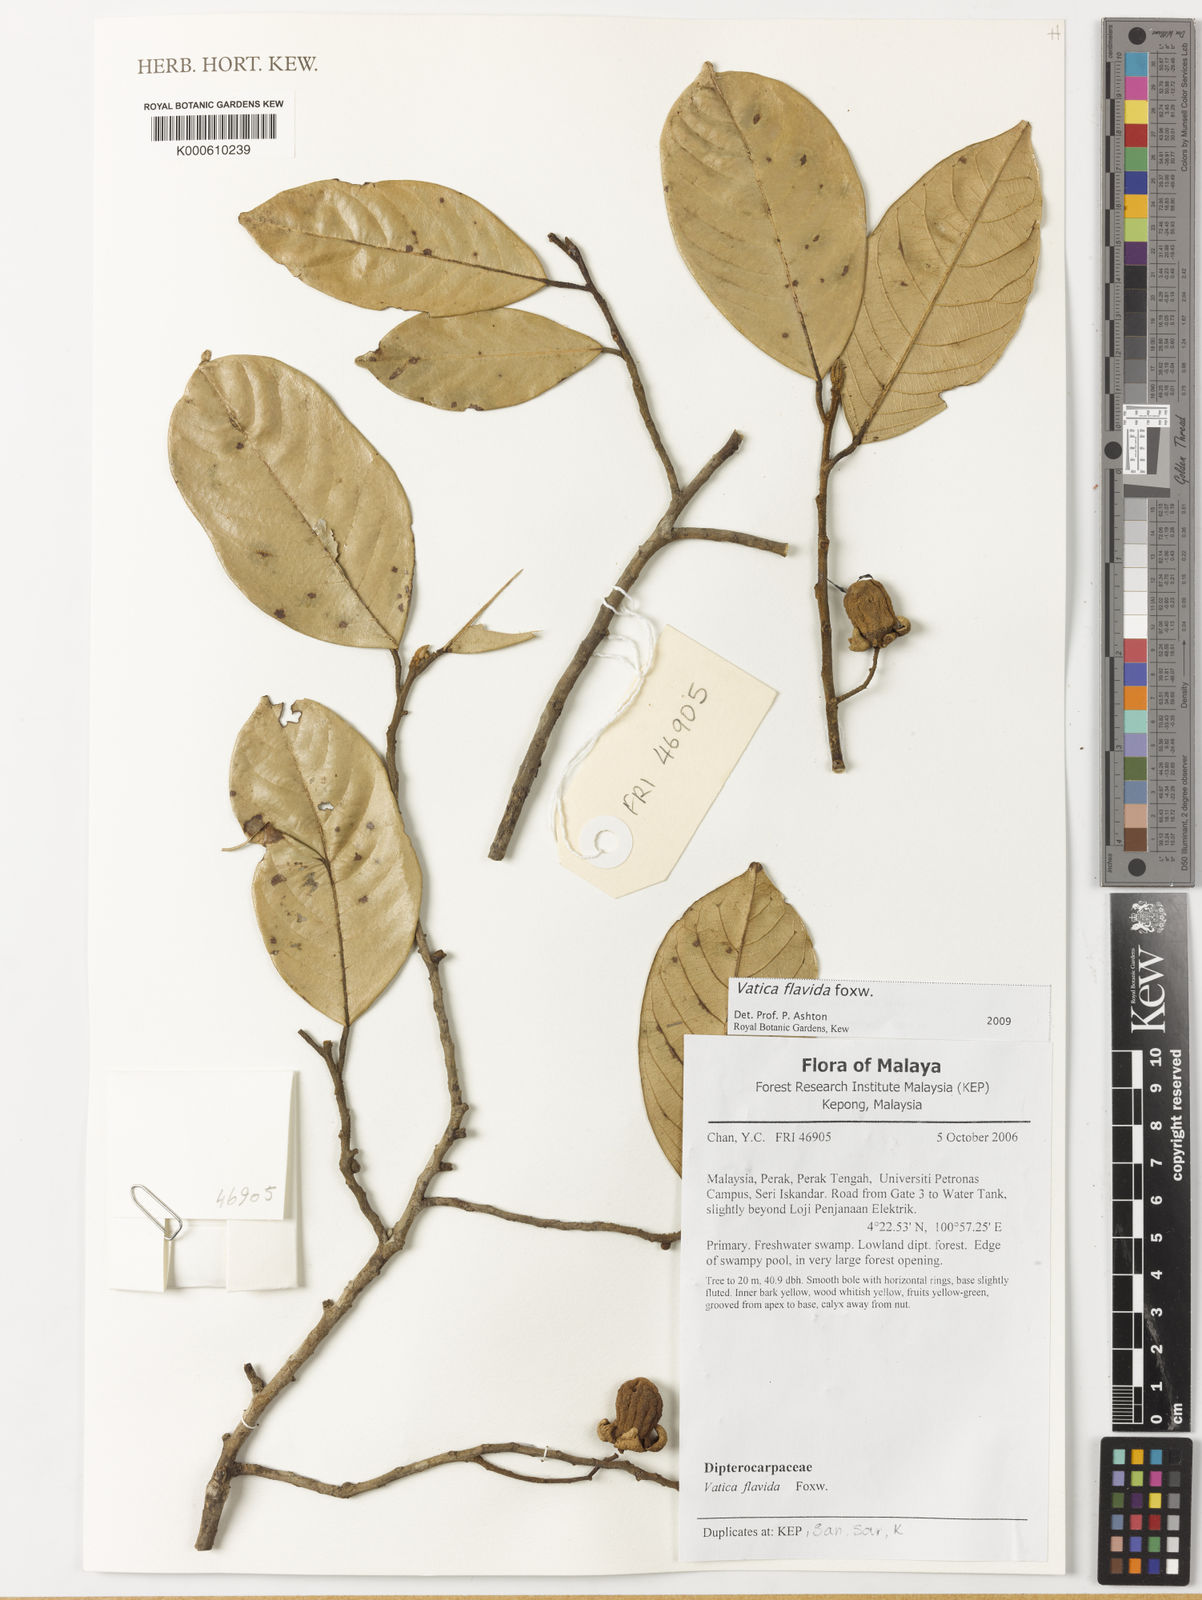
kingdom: Plantae
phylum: Tracheophyta
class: Magnoliopsida
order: Malvales
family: Dipterocarpaceae
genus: Vatica
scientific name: Vatica flavida
